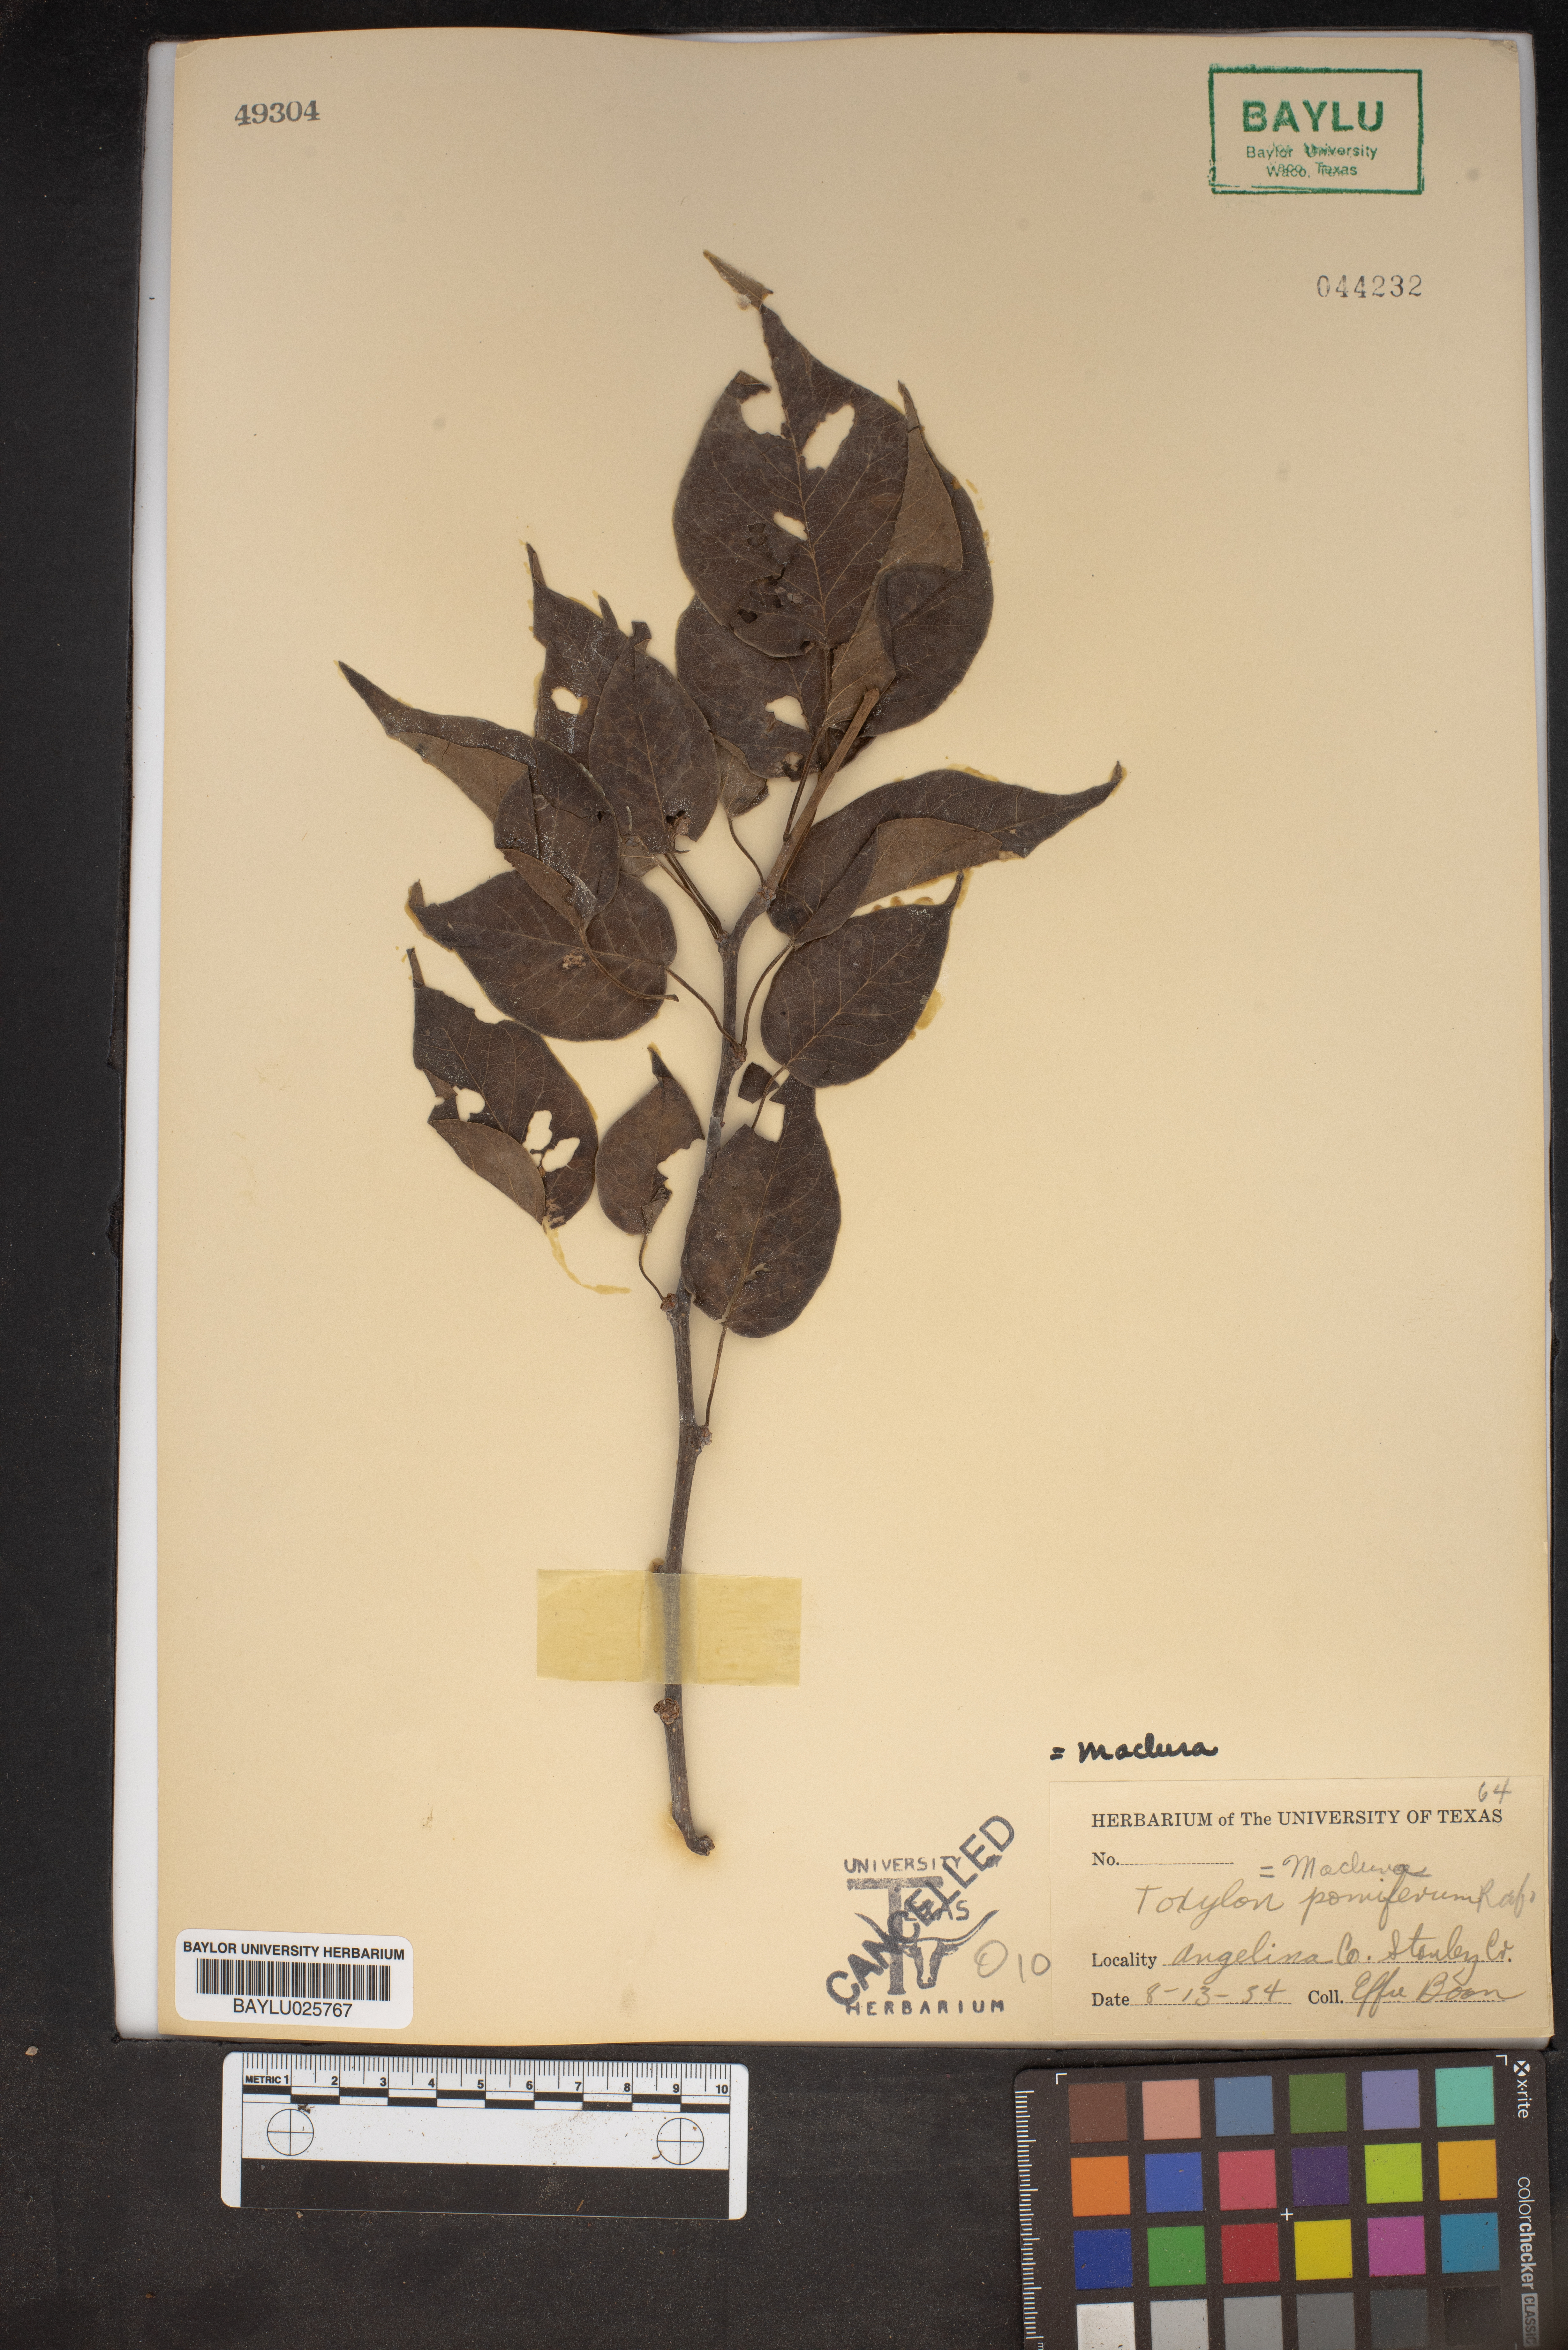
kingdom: Plantae
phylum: Tracheophyta
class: Magnoliopsida
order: Rosales
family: Moraceae
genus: Maclura
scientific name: Maclura pomifera
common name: Osage-orange
